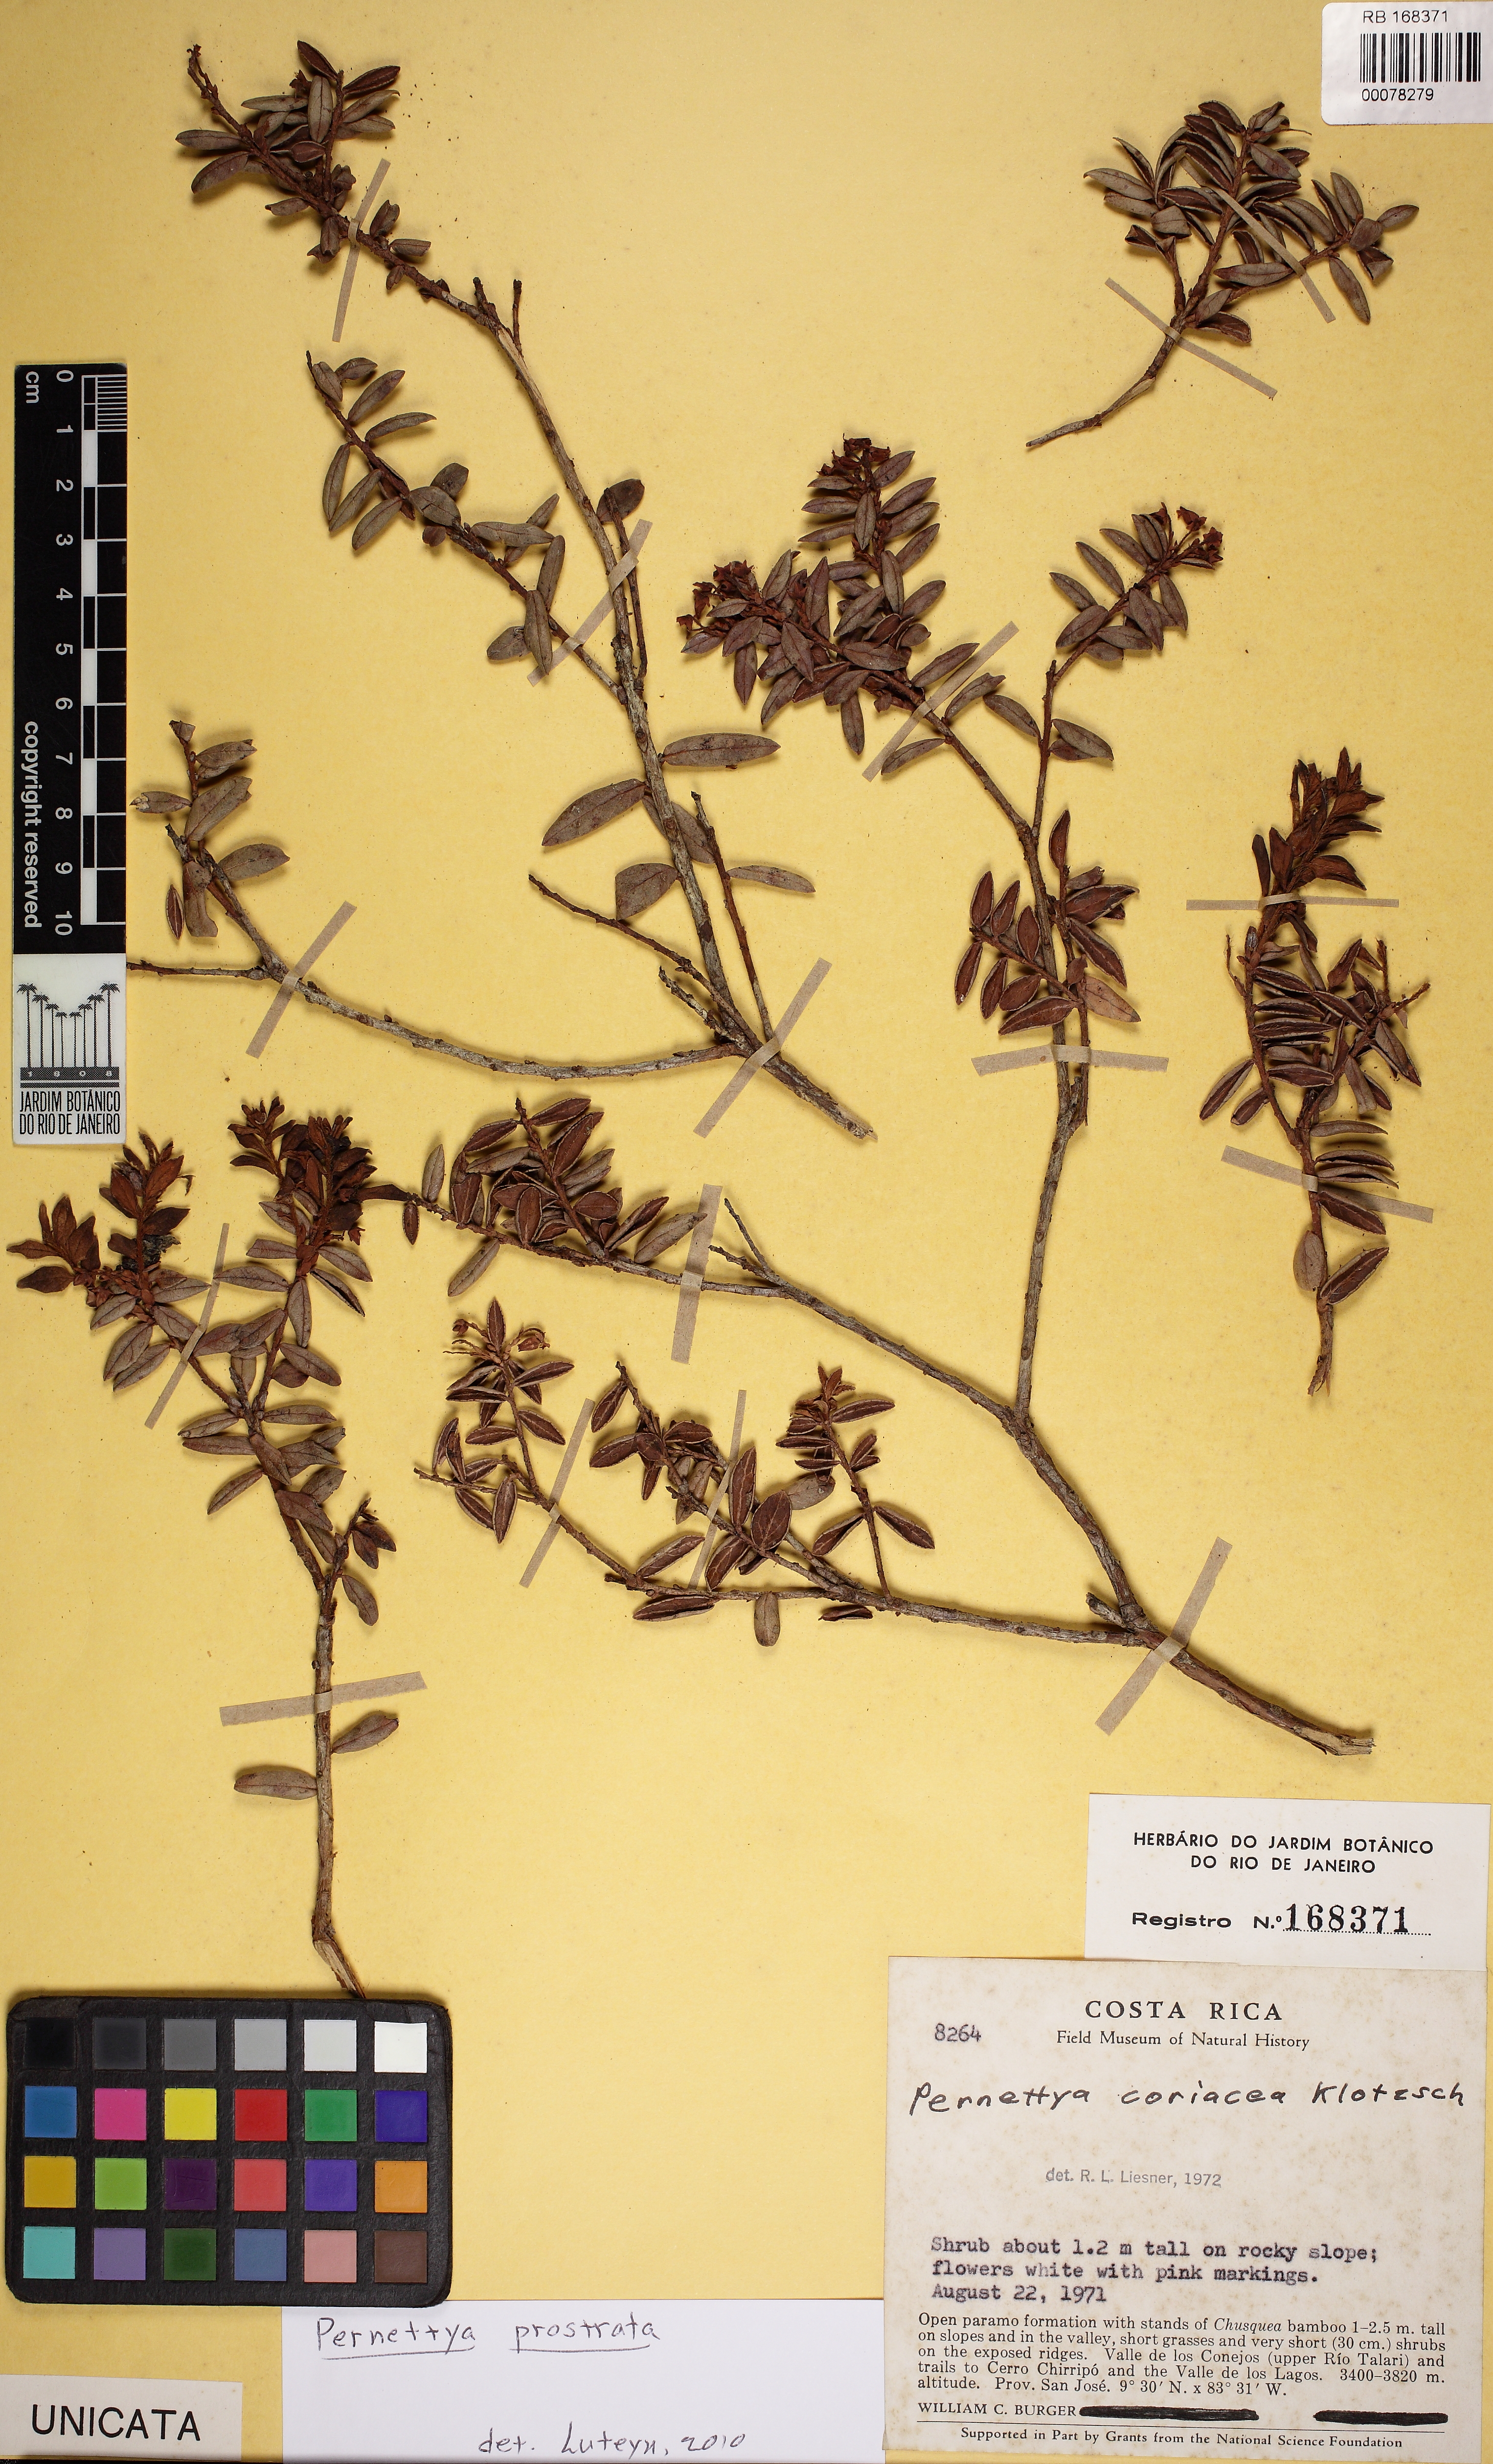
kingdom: Plantae
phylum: Tracheophyta
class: Magnoliopsida
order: Ericales
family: Ericaceae
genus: Gaultheria
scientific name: Gaultheria myrsinoides
